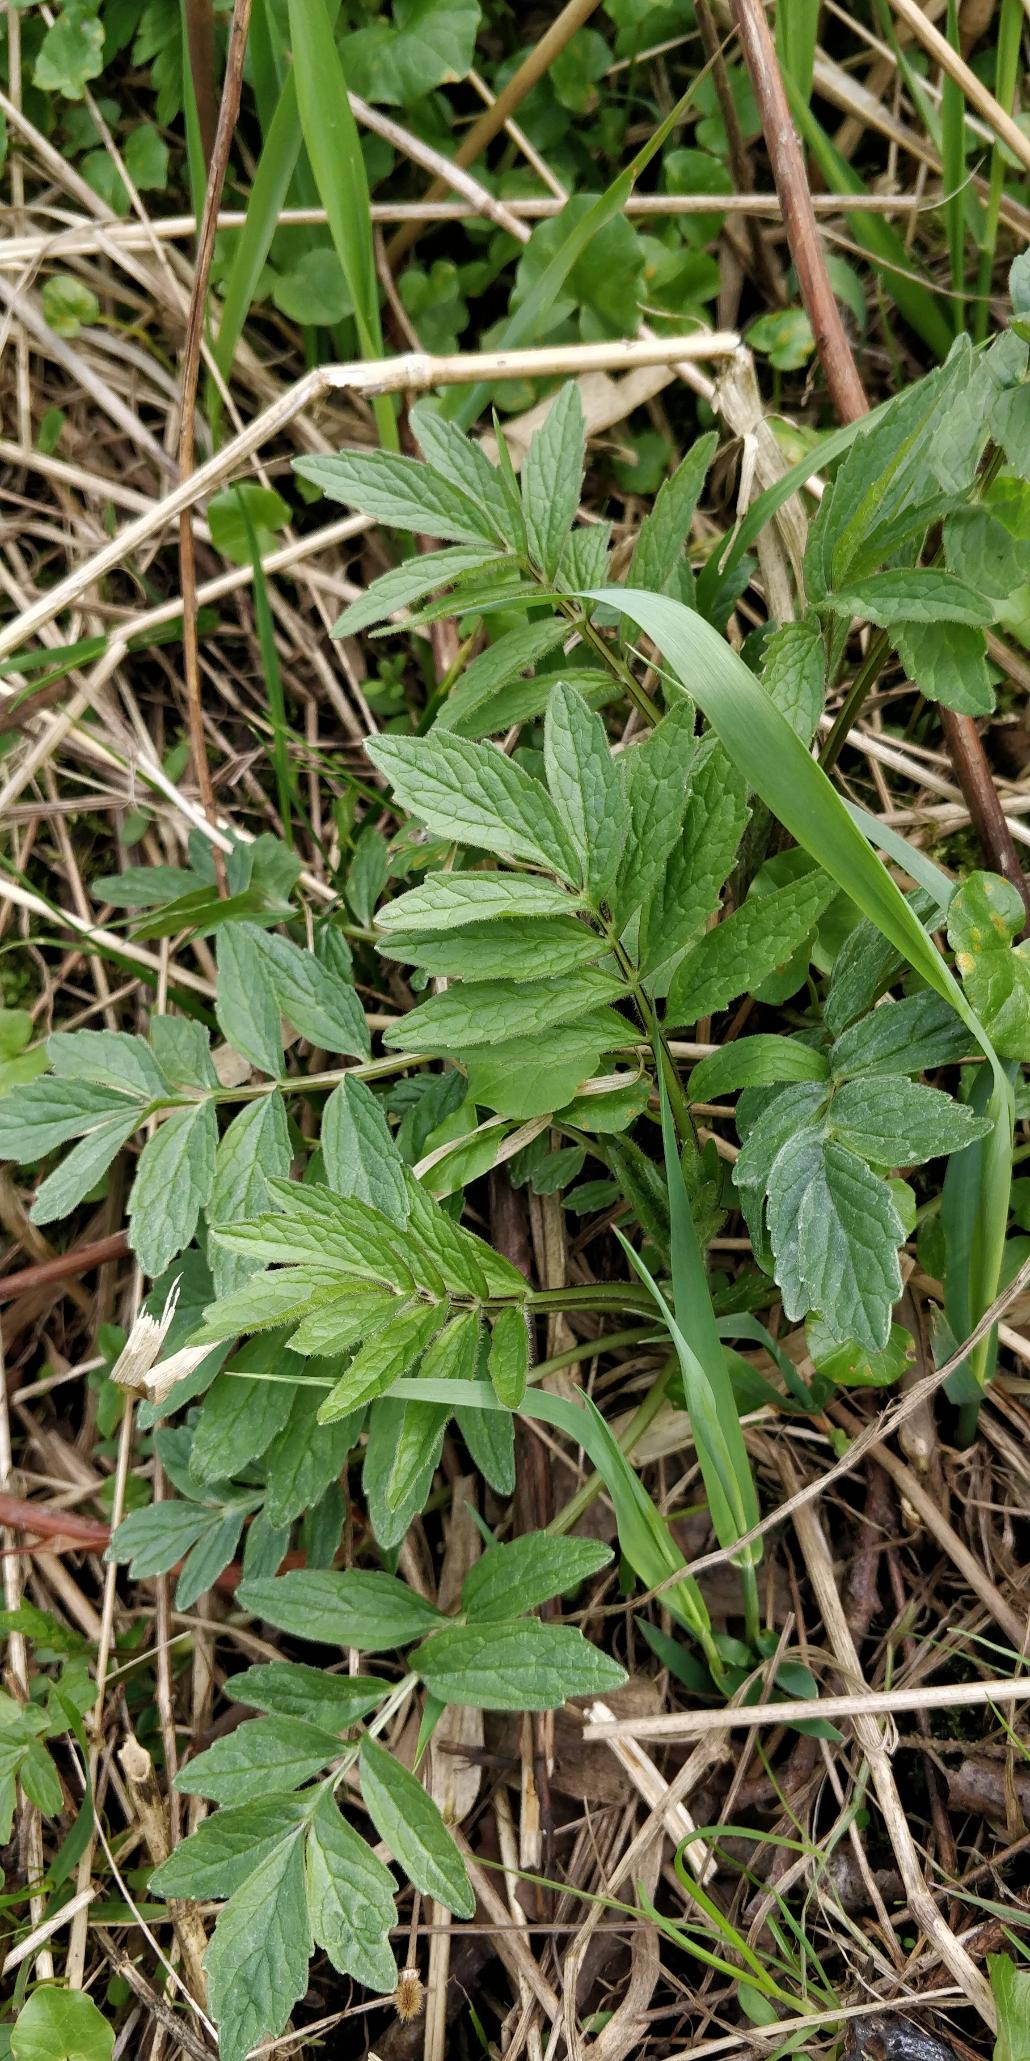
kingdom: Plantae
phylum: Tracheophyta
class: Magnoliopsida
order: Dipsacales
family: Caprifoliaceae
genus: Valeriana
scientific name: Valeriana sambucifolia
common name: Hyldebladet baldrian
